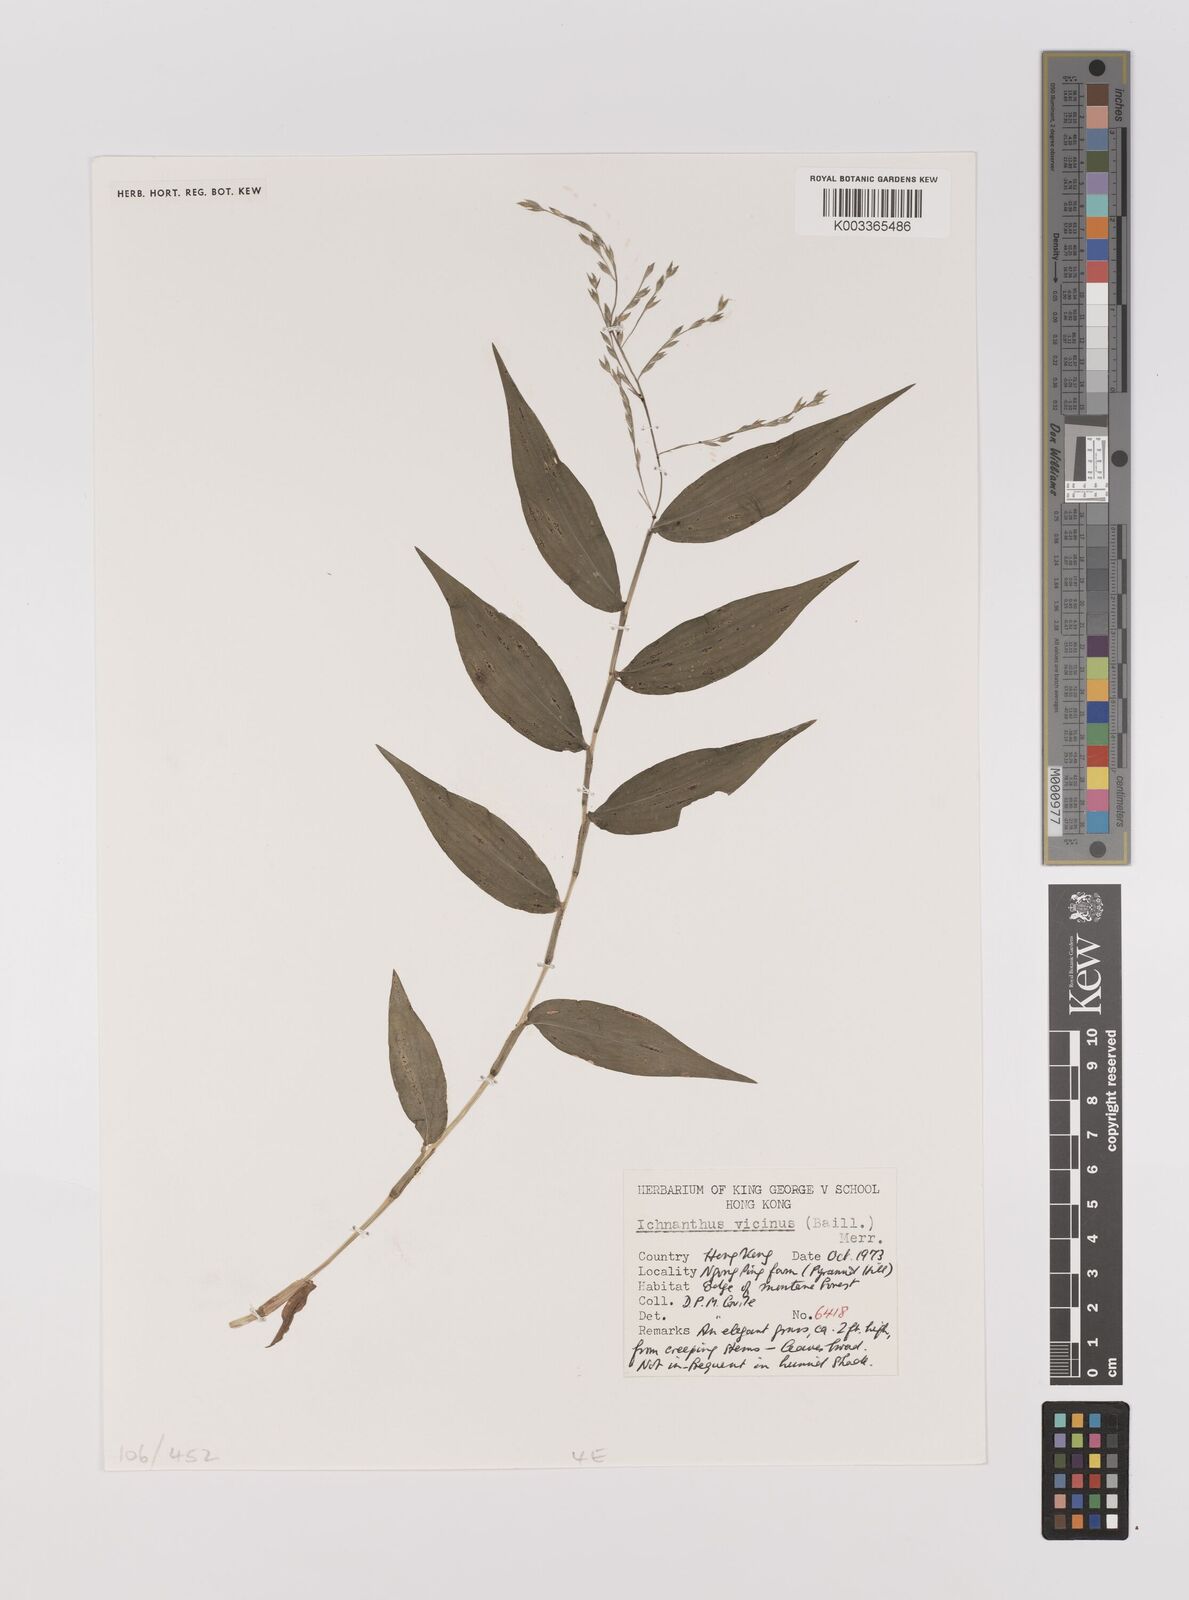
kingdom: Plantae
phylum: Tracheophyta
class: Liliopsida
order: Poales
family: Poaceae
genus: Ichnanthus
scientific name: Ichnanthus pallens
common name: Water grass
